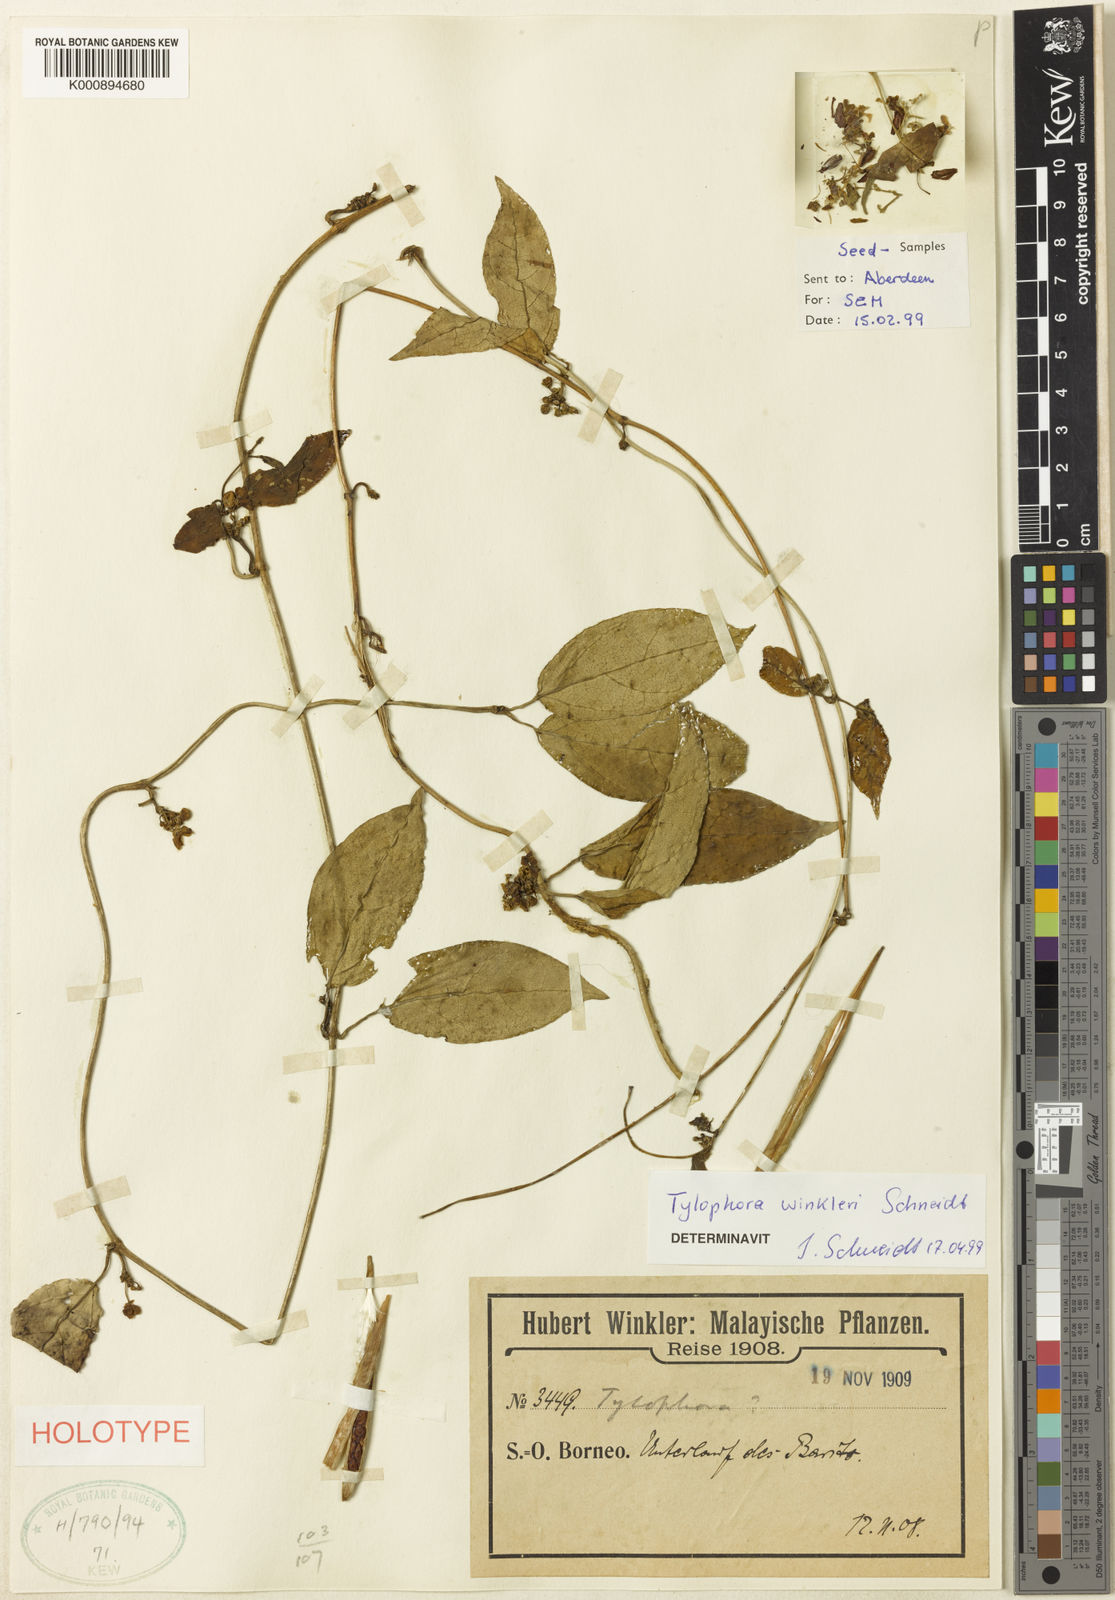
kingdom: Plantae
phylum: Tracheophyta
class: Magnoliopsida
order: Gentianales
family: Apocynaceae
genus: Vincetoxicum
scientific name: Vincetoxicum
